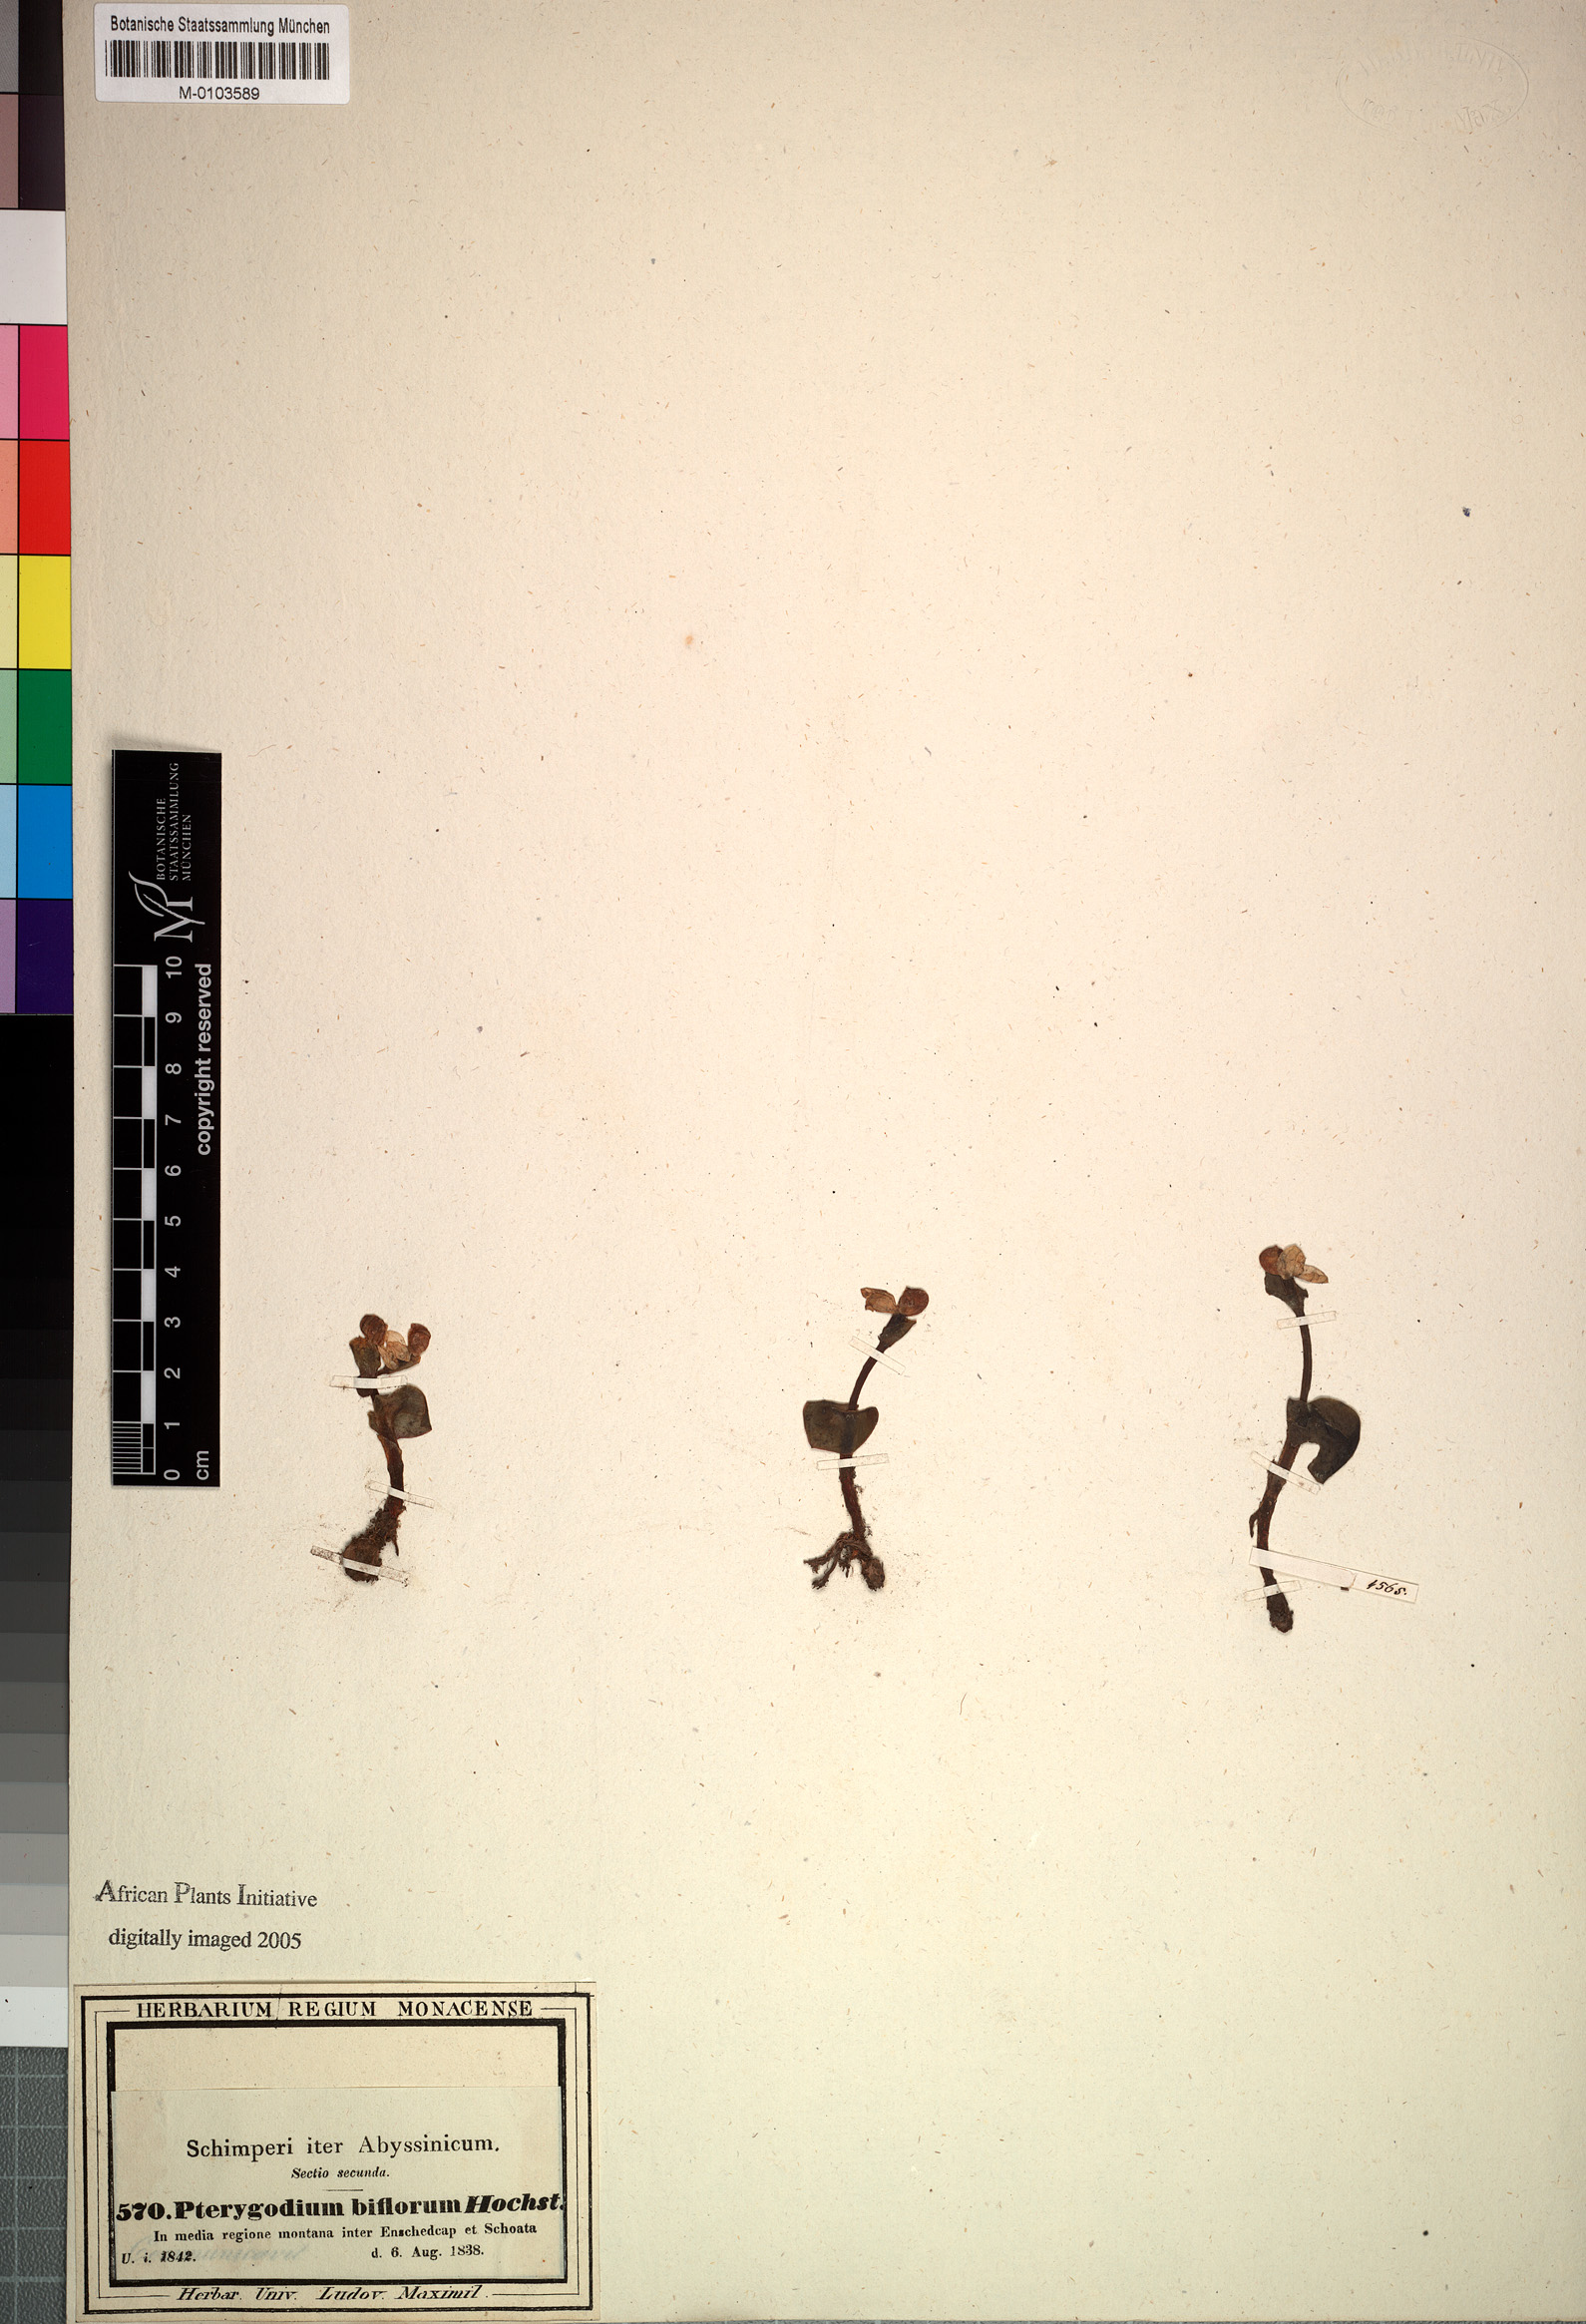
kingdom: Plantae
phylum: Tracheophyta
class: Liliopsida
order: Asparagales
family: Orchidaceae
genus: Disperis
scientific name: Disperis crassicaulis
